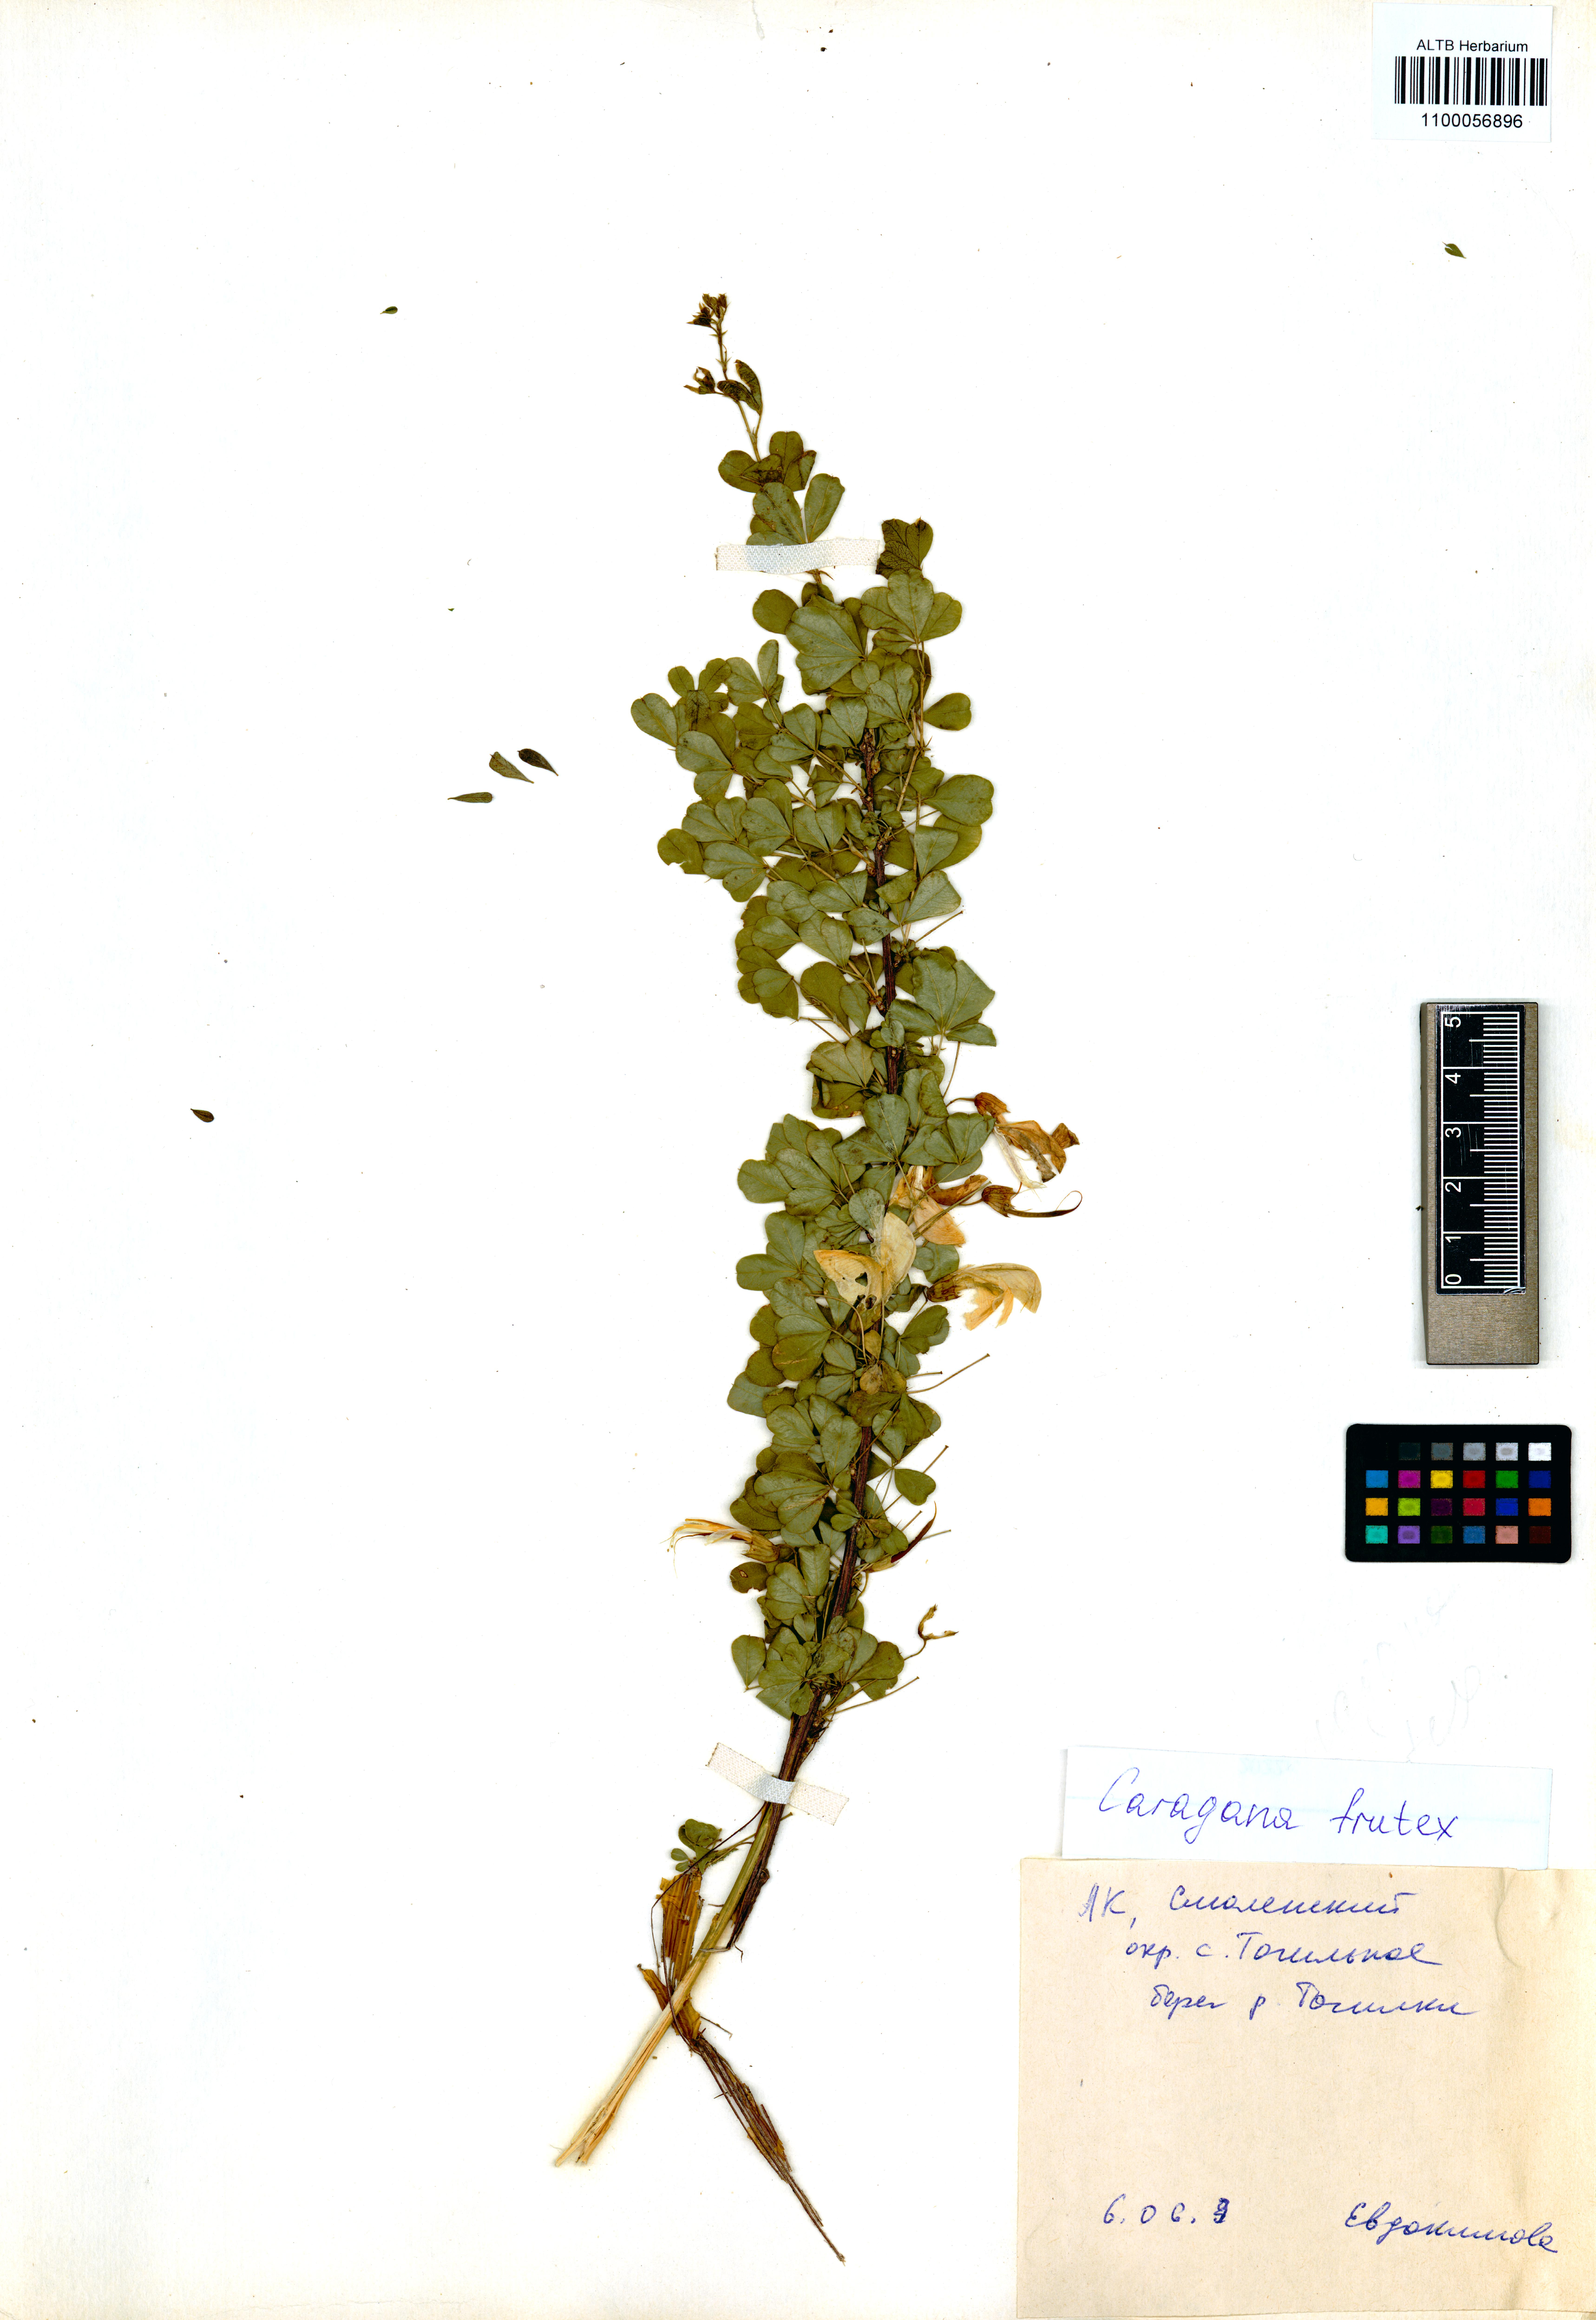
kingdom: Plantae
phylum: Tracheophyta
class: Magnoliopsida
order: Fabales
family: Fabaceae
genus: Caragana
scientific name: Caragana frutex
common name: Russian peashrub
